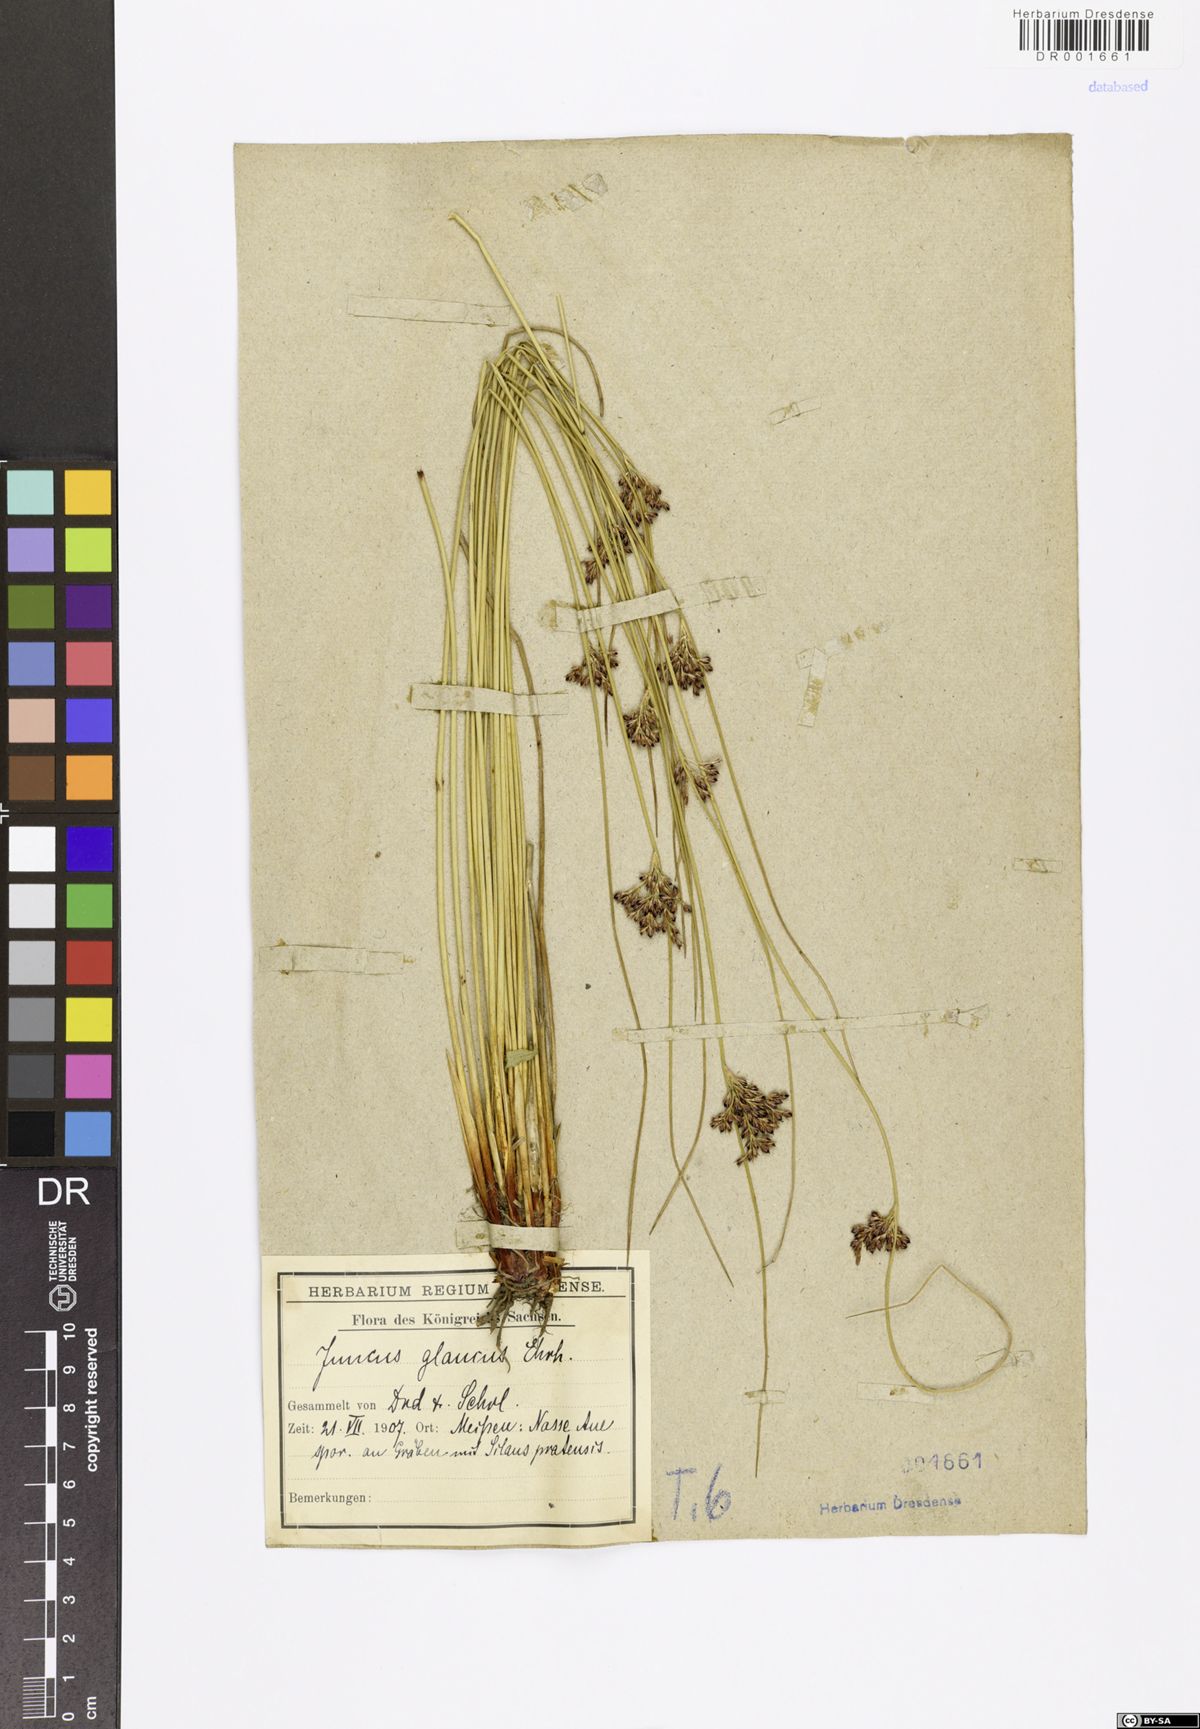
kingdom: Plantae
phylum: Tracheophyta
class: Liliopsida
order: Poales
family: Juncaceae
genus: Juncus
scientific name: Juncus inflexus
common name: Hard rush
